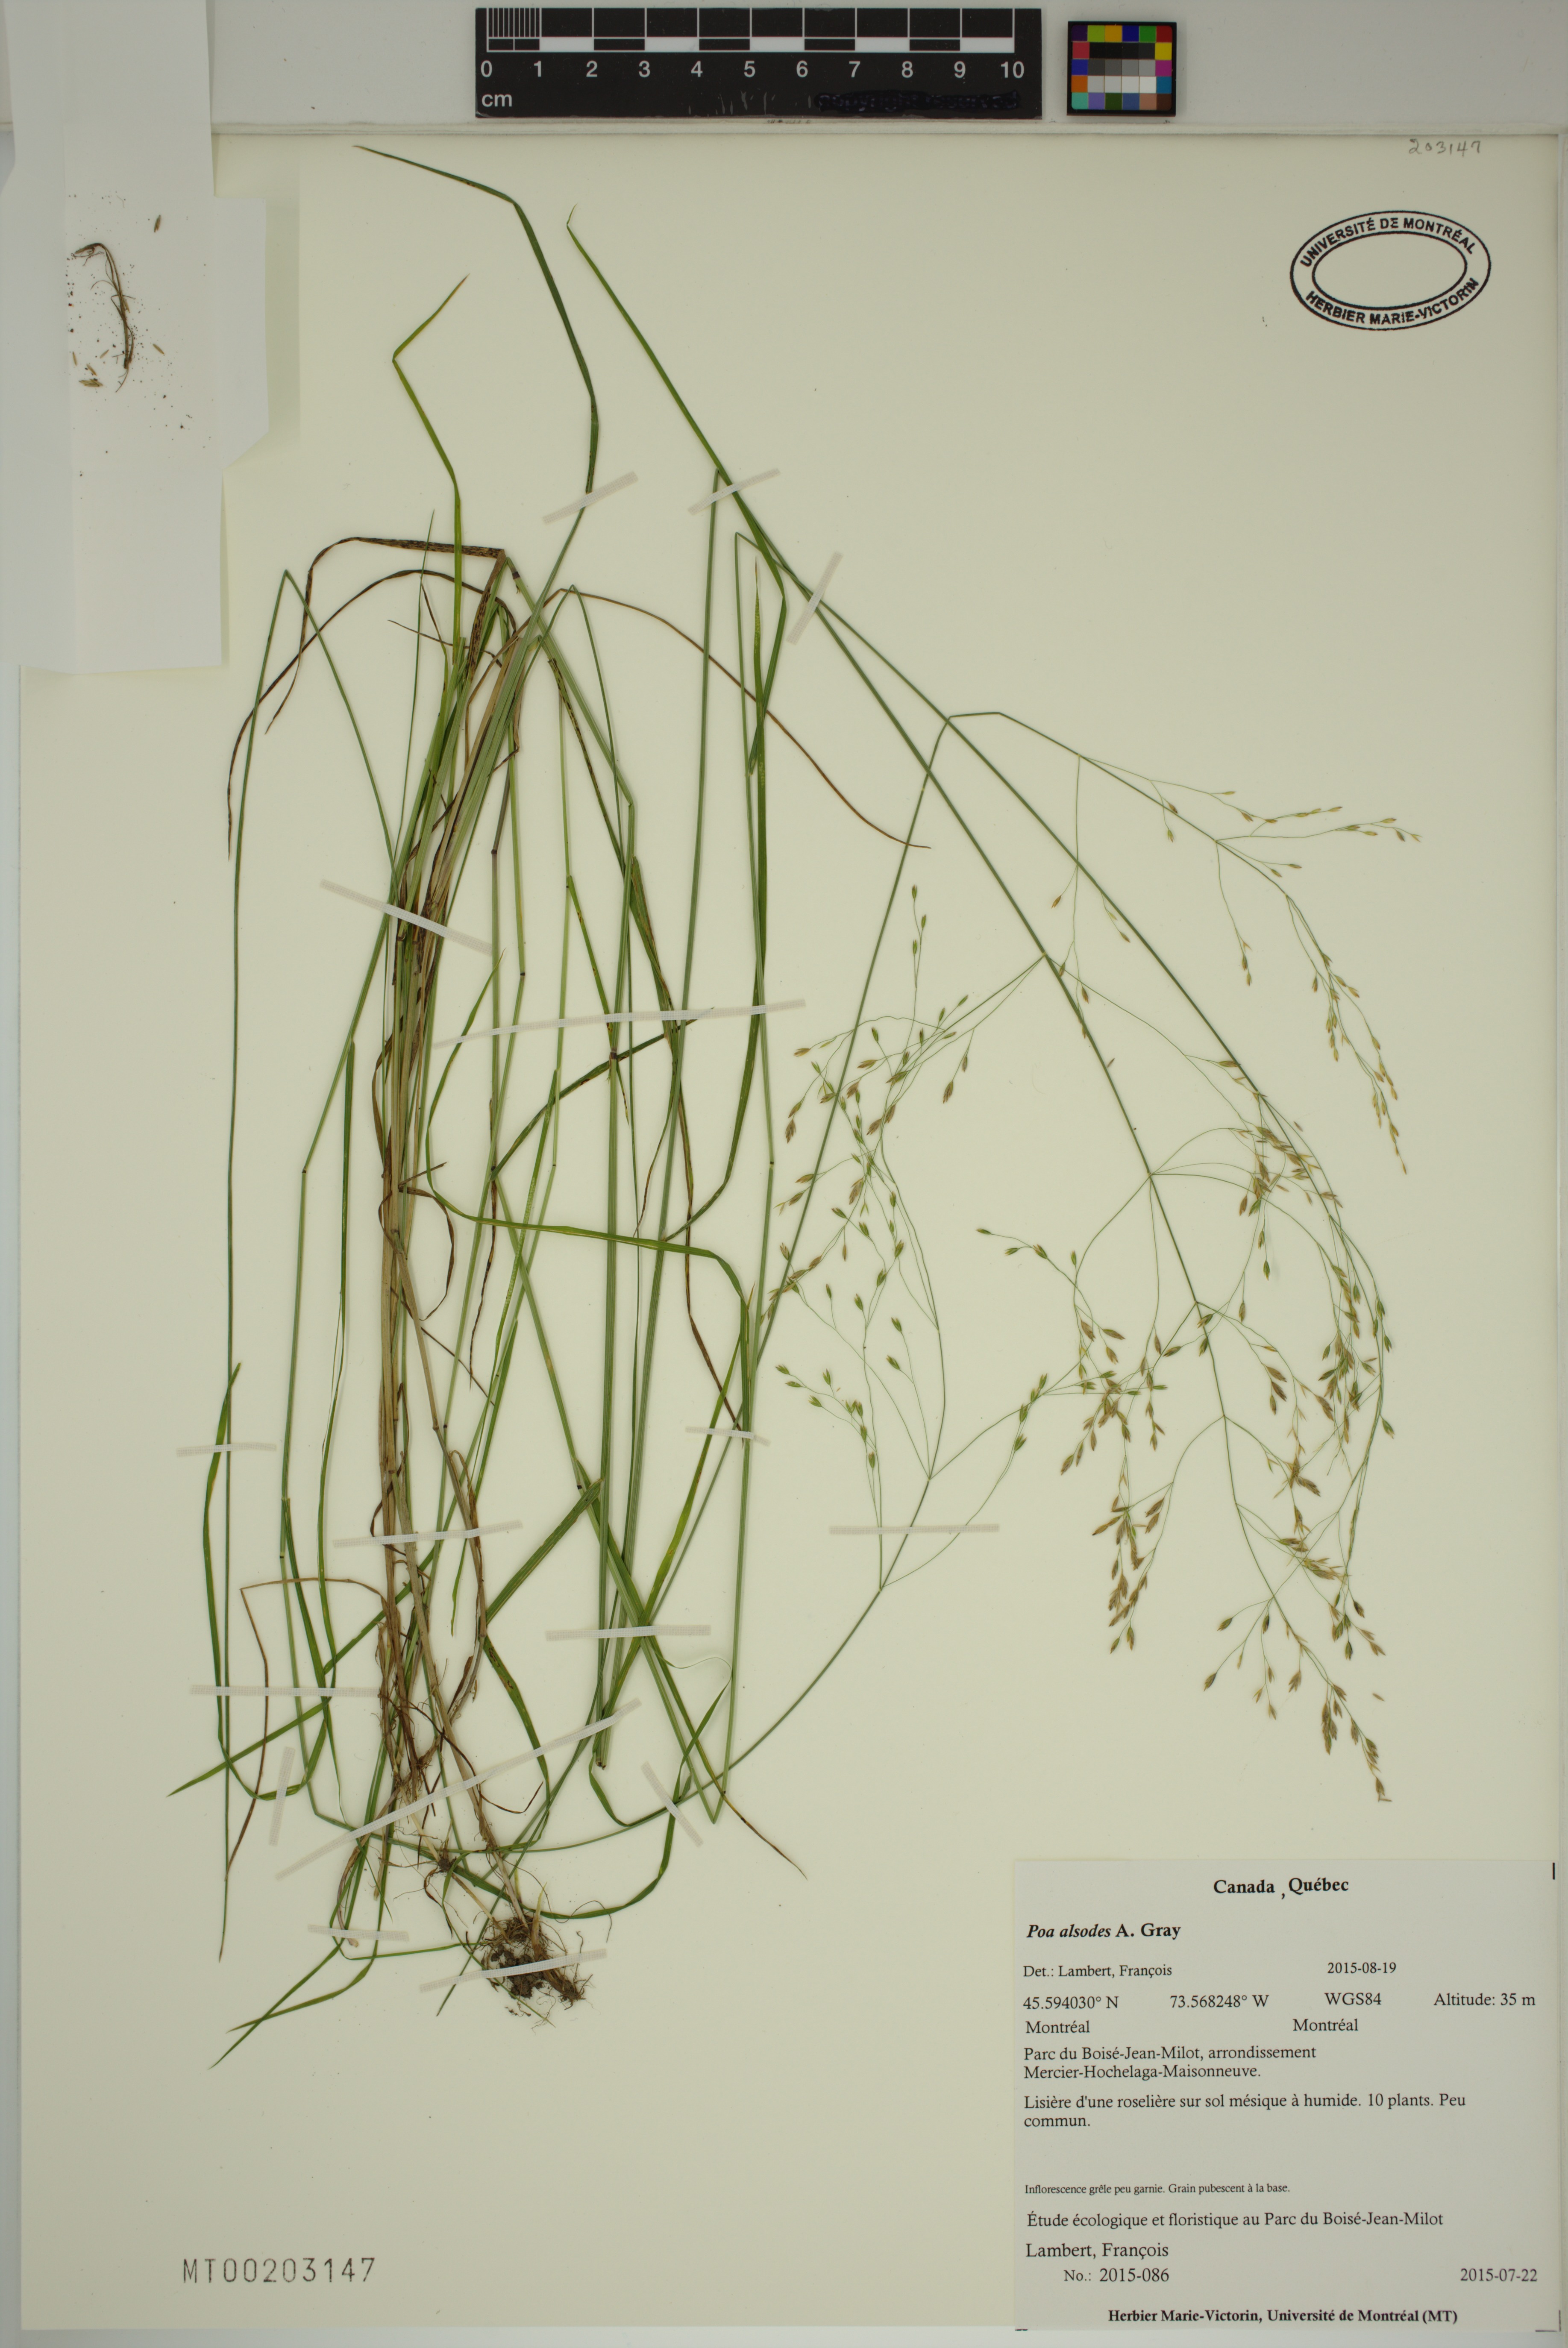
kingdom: Plantae
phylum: Tracheophyta
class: Liliopsida
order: Poales
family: Poaceae
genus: Poa
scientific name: Poa alsodes
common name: Grove bluegrass
